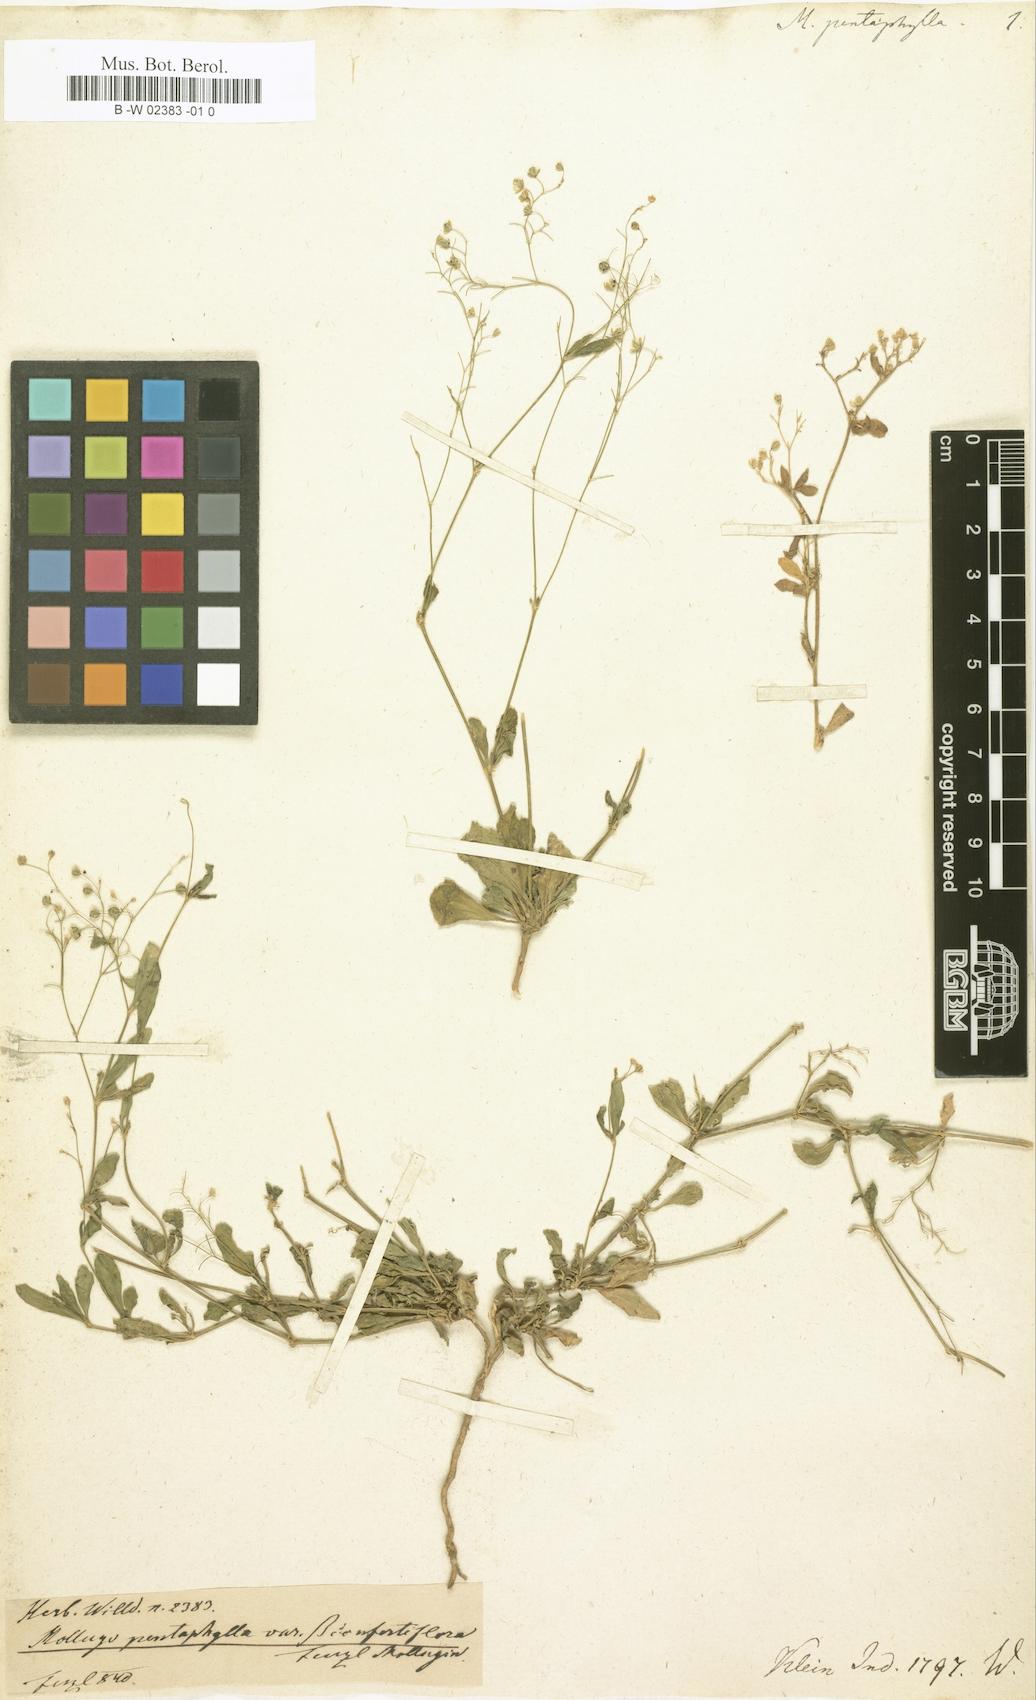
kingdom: Plantae
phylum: Tracheophyta
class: Magnoliopsida
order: Caryophyllales
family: Molluginaceae
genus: Trigastrotheca
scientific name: Trigastrotheca pentaphylla
